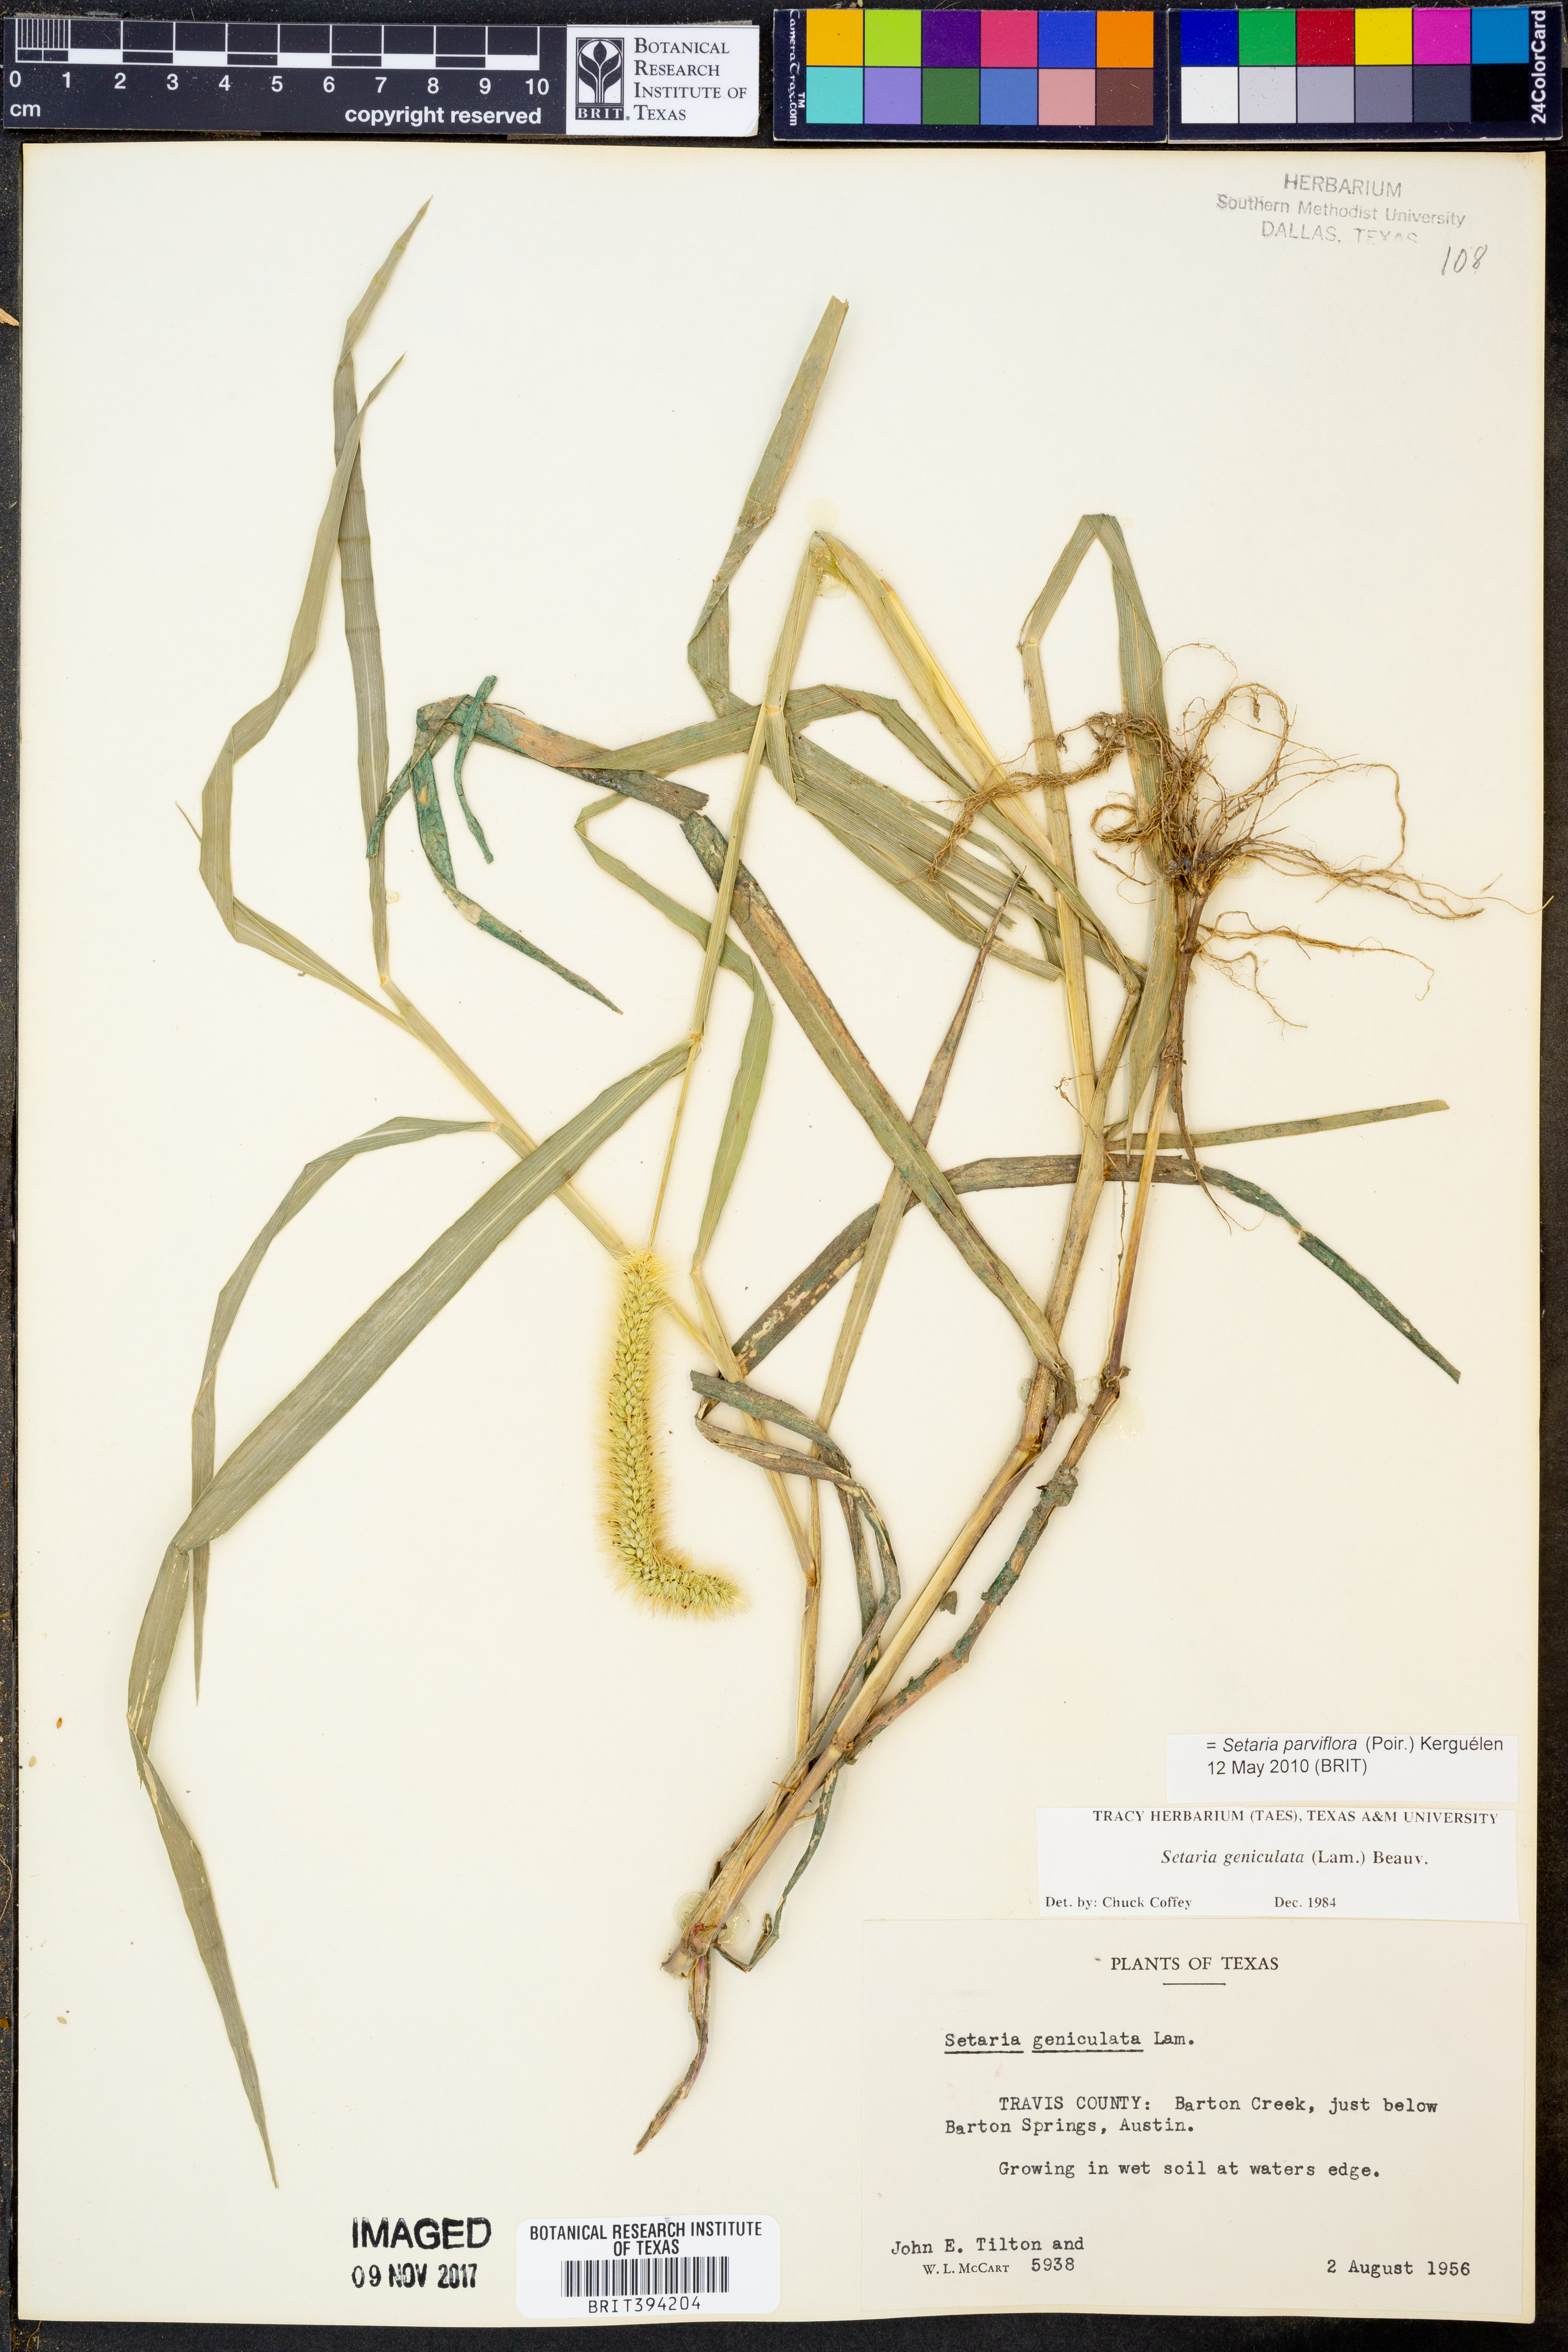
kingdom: Plantae
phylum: Tracheophyta
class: Liliopsida
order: Poales
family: Poaceae
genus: Setaria
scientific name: Setaria parviflora
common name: Knotroot bristle-grass
